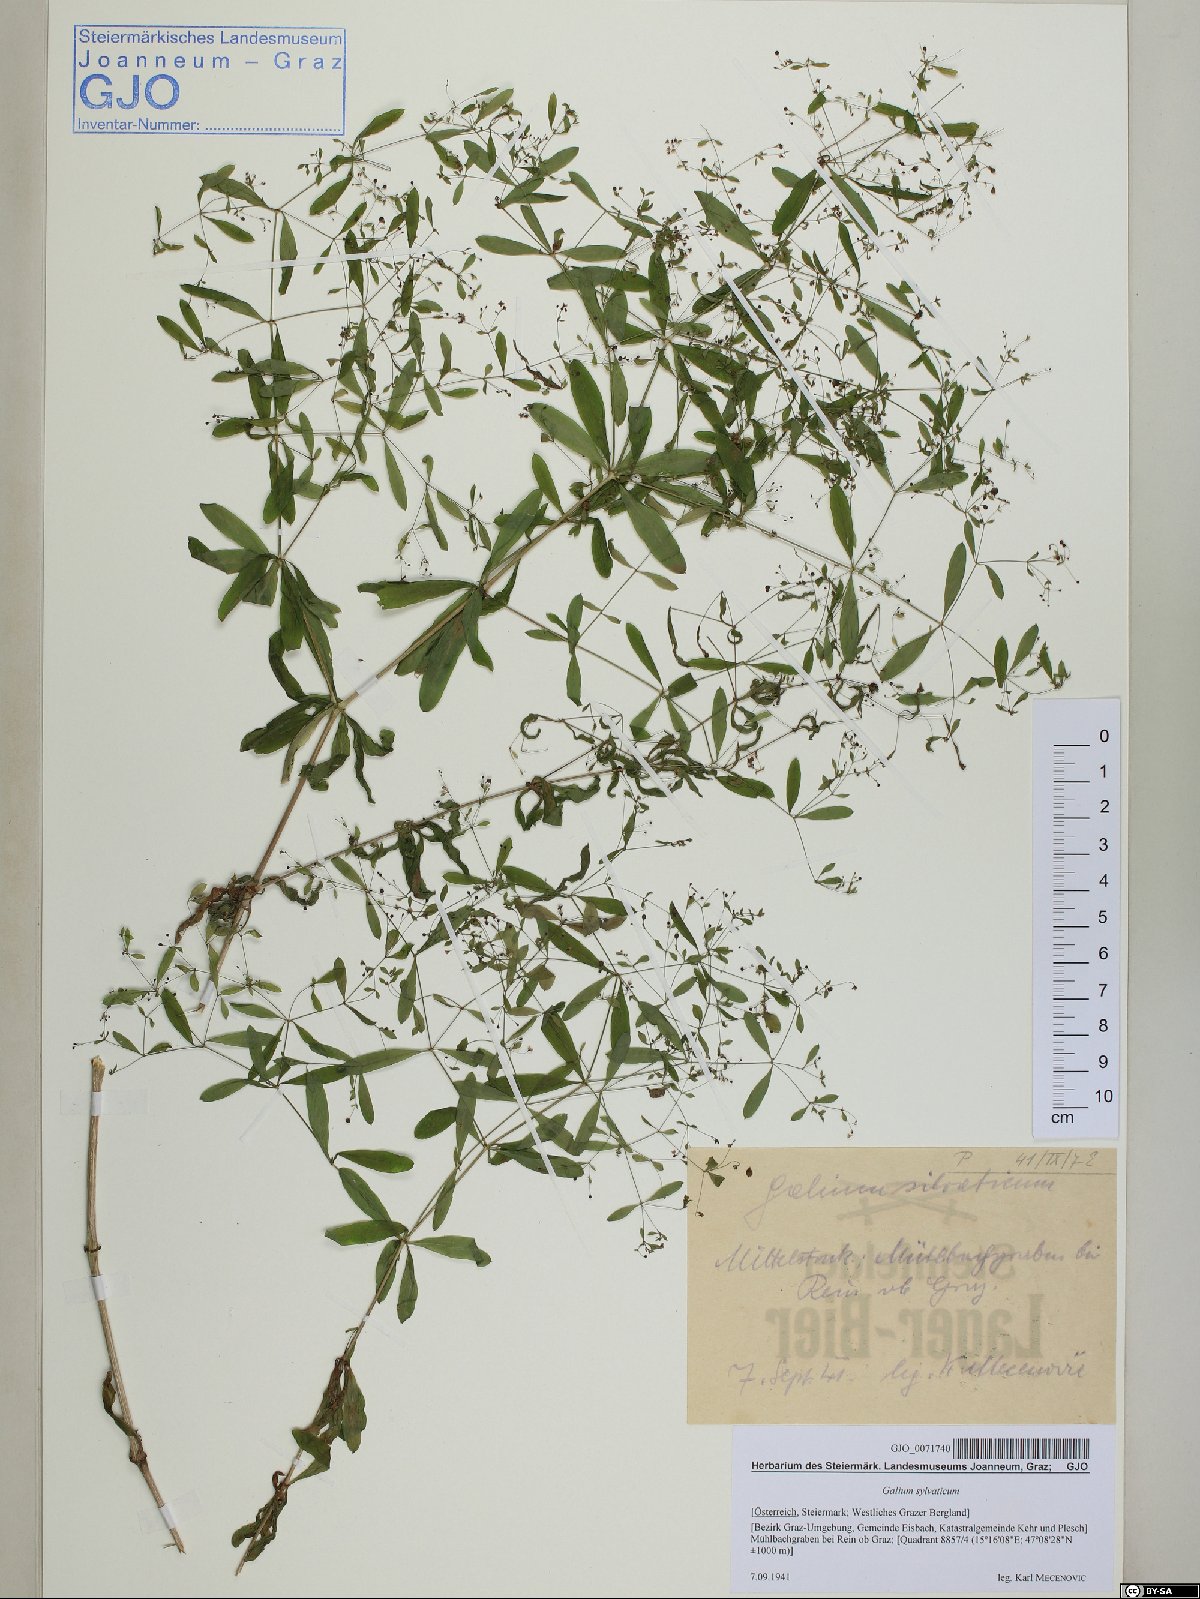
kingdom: Plantae
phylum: Tracheophyta
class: Magnoliopsida
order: Gentianales
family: Rubiaceae
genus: Galium
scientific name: Galium sylvaticum
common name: Wood bedstraw
